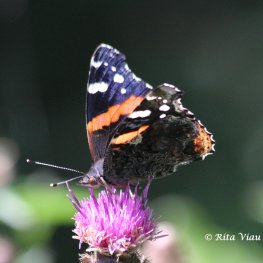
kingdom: Animalia
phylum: Arthropoda
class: Insecta
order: Lepidoptera
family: Nymphalidae
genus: Vanessa
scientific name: Vanessa atalanta
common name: Red Admiral
